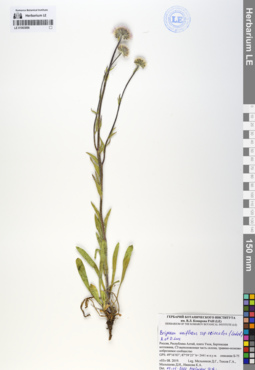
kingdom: Plantae
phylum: Tracheophyta
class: Magnoliopsida
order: Asterales
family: Asteraceae
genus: Erigeron
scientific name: Erigeron eriocalyx
